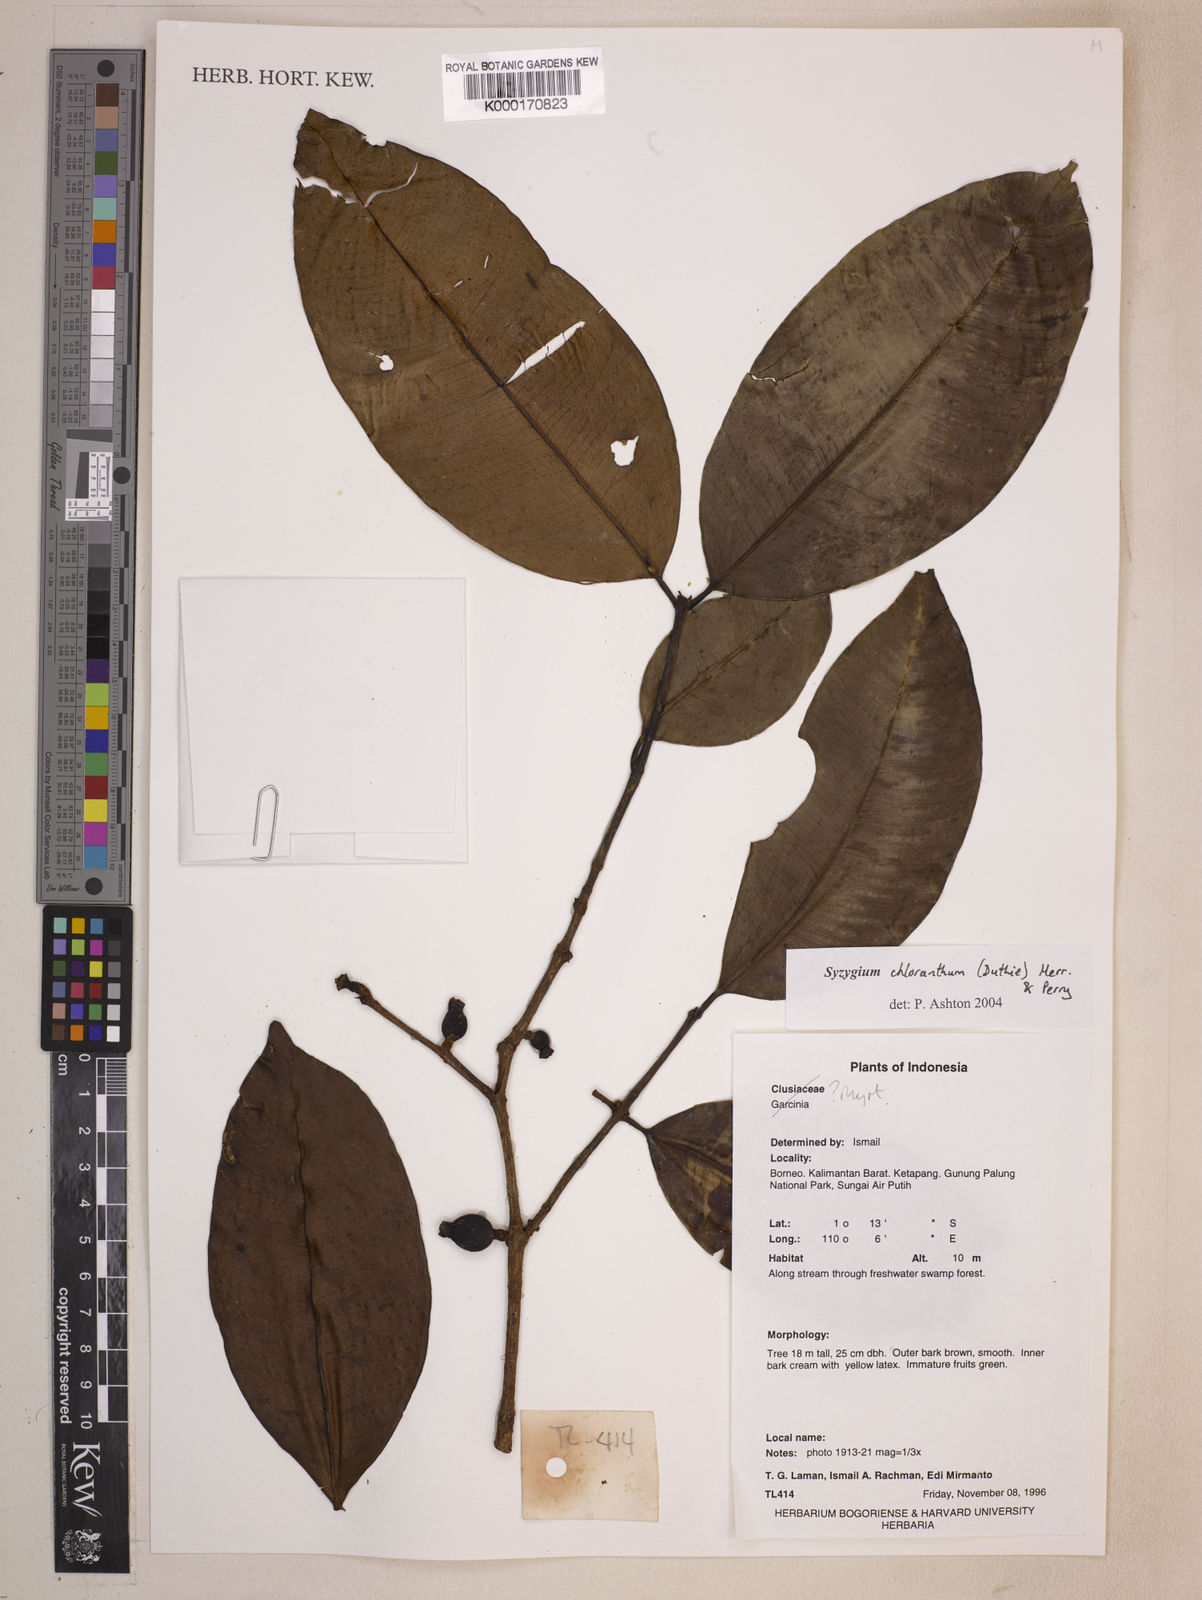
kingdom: Plantae
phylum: Tracheophyta
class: Magnoliopsida
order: Myrtales
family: Myrtaceae
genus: Syzygium
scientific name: Syzygium chloranthum
